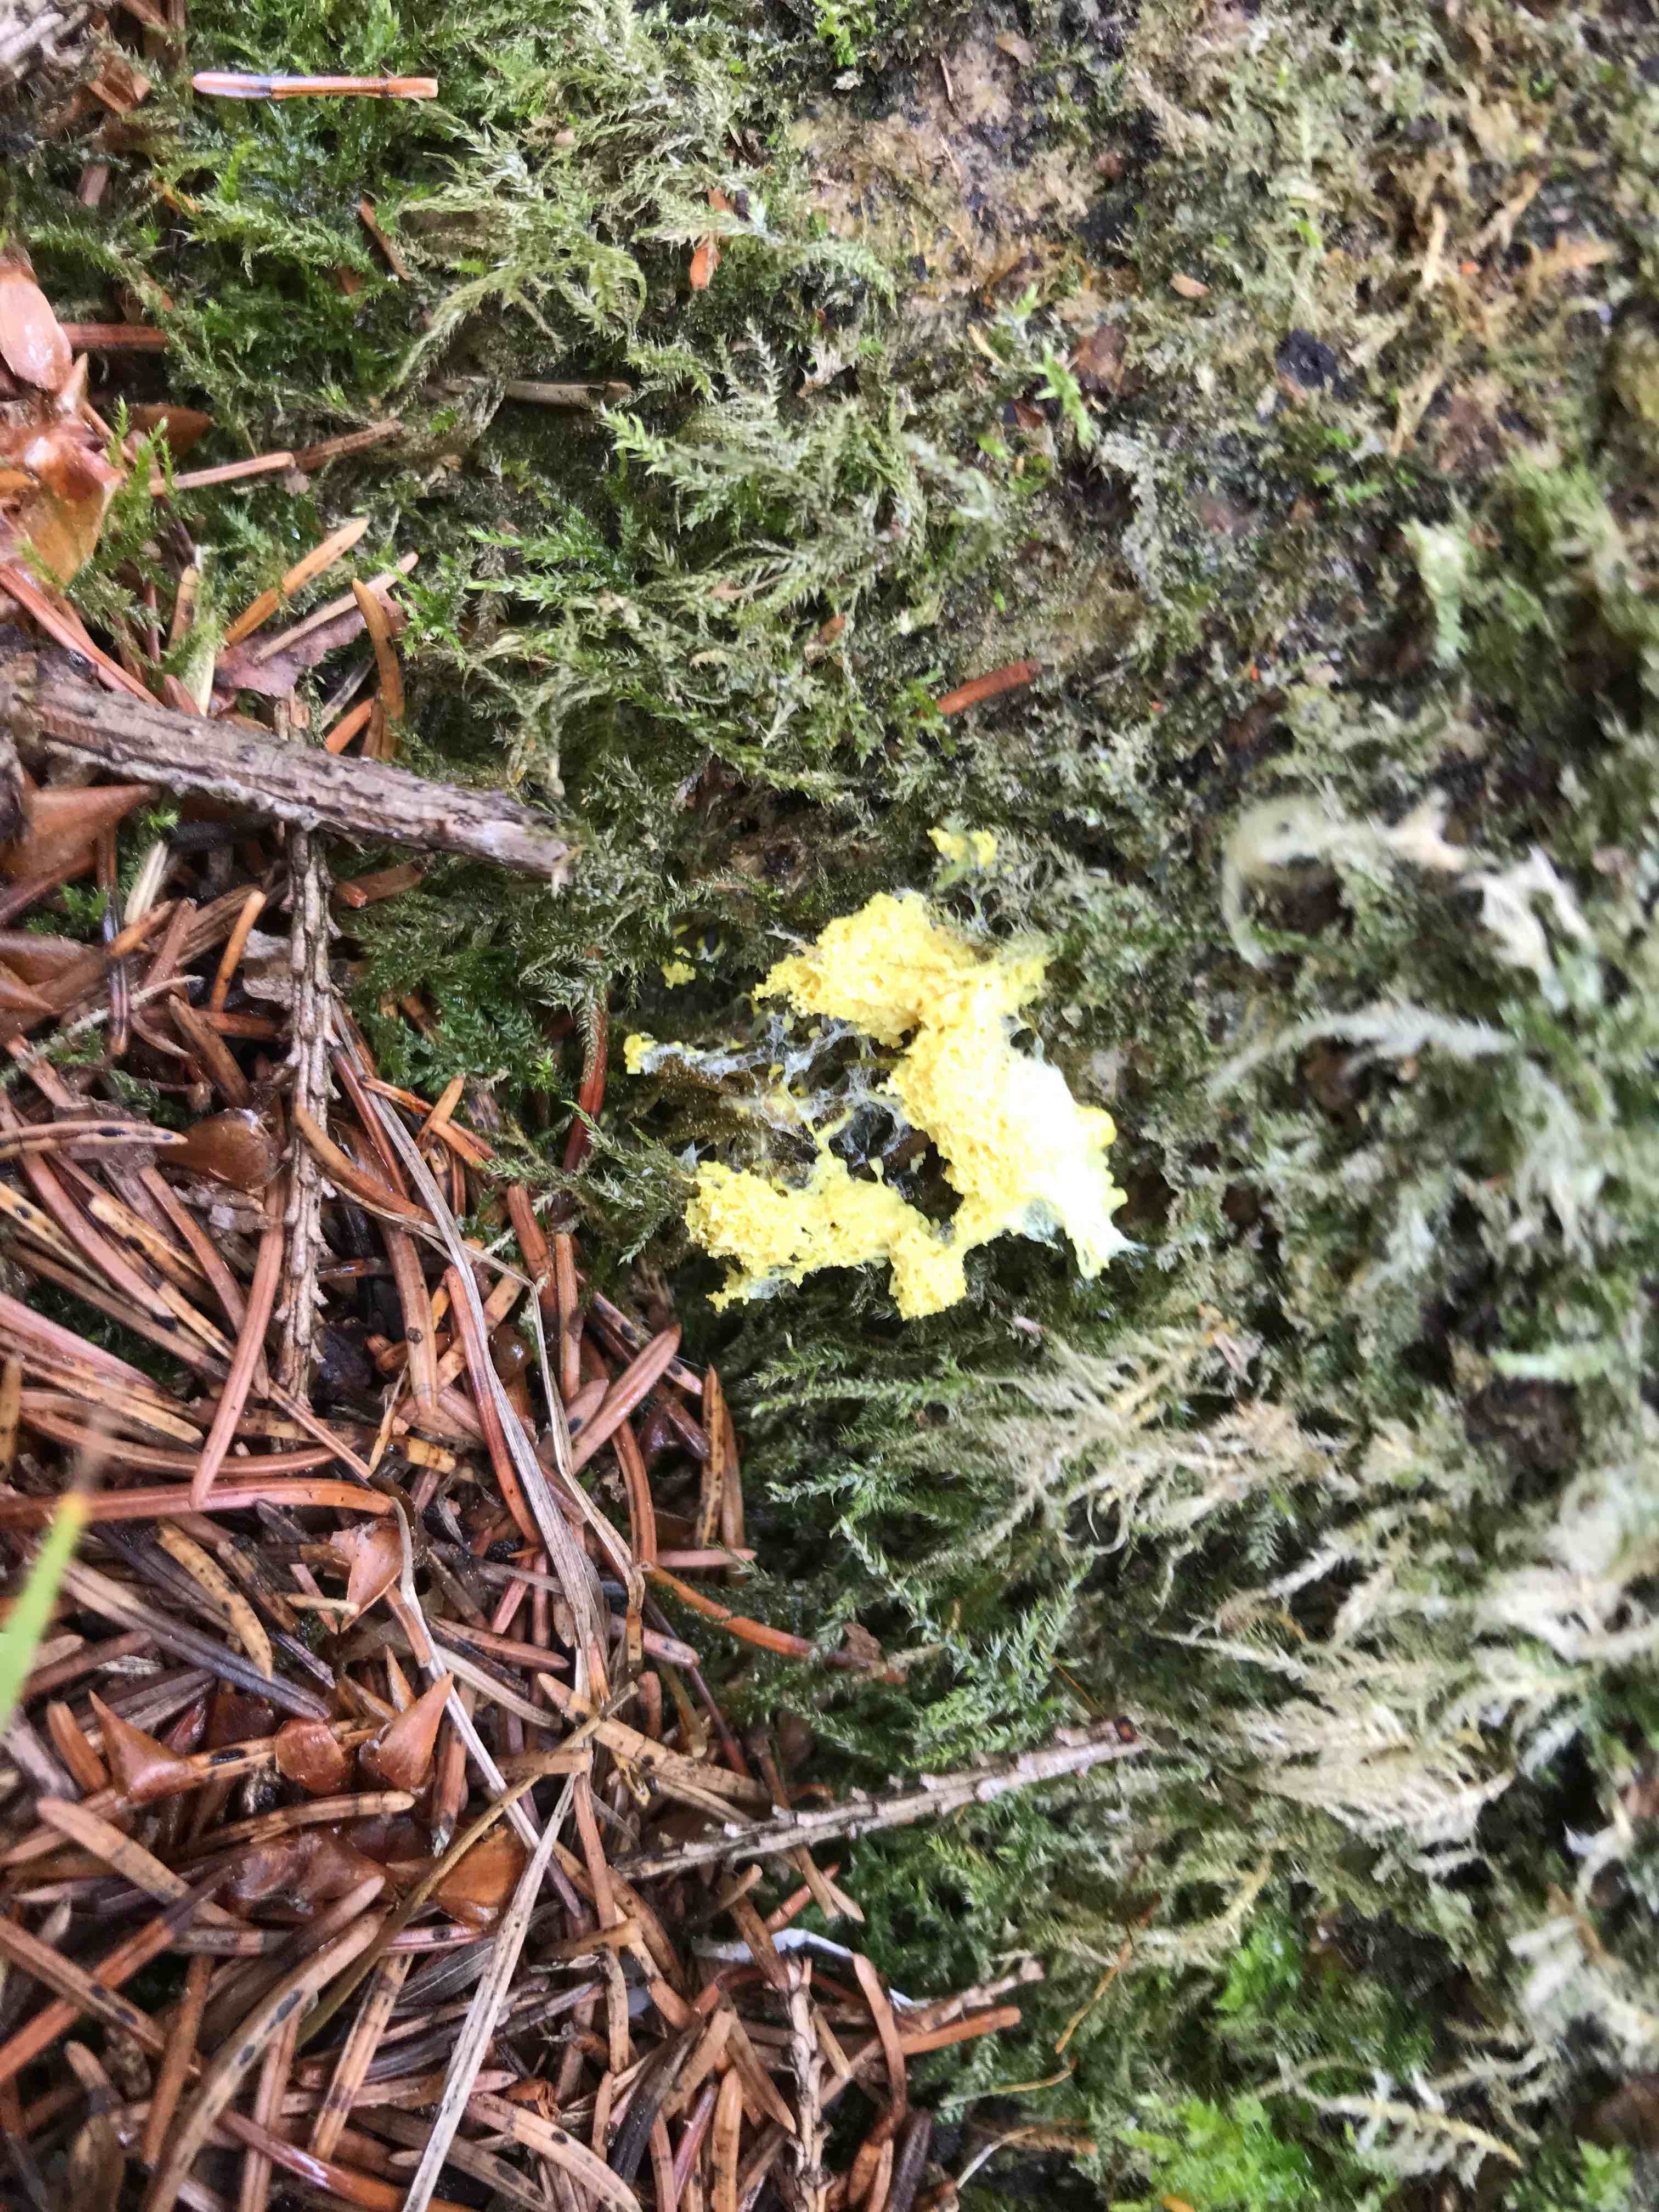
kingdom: Protozoa
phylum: Mycetozoa
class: Myxomycetes
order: Physarales
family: Physaraceae
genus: Fuligo
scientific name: Fuligo septica
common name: gul troldsmør
